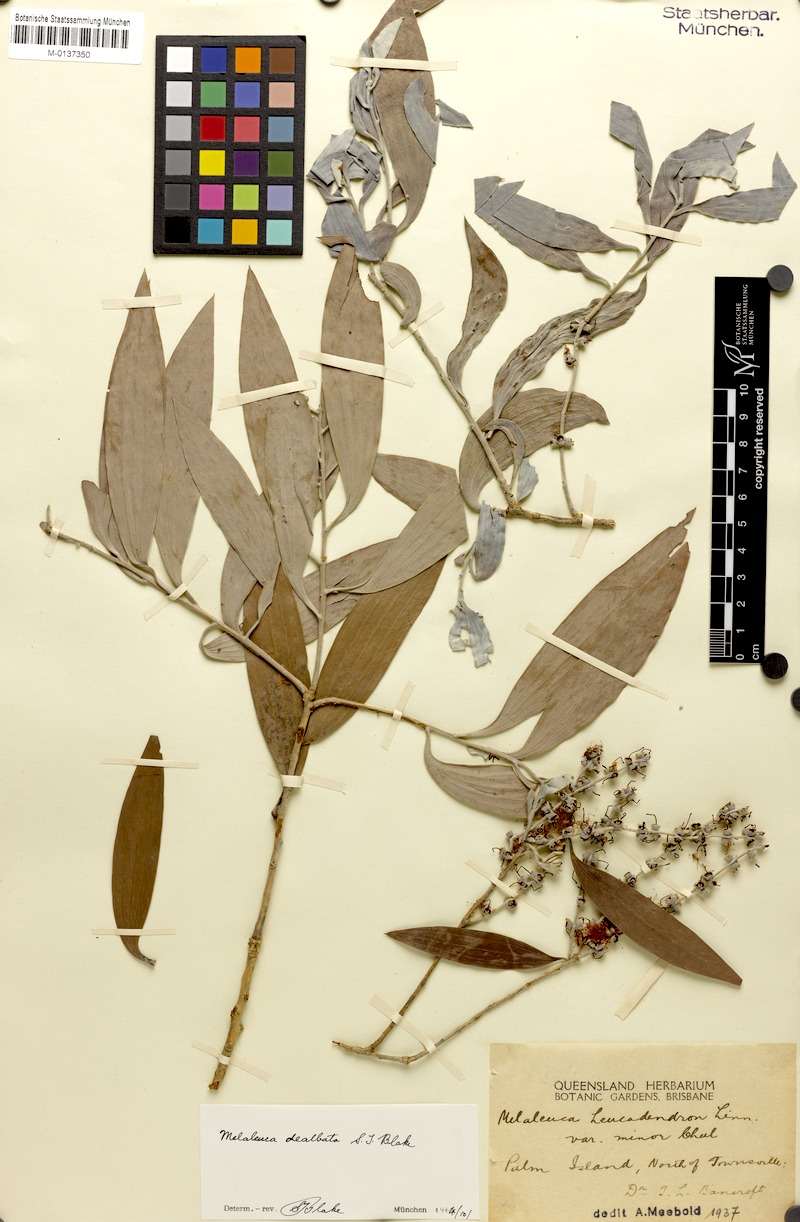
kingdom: Plantae
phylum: Tracheophyta
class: Magnoliopsida
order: Myrtales
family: Myrtaceae
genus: Melaleuca
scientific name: Melaleuca dealbata
